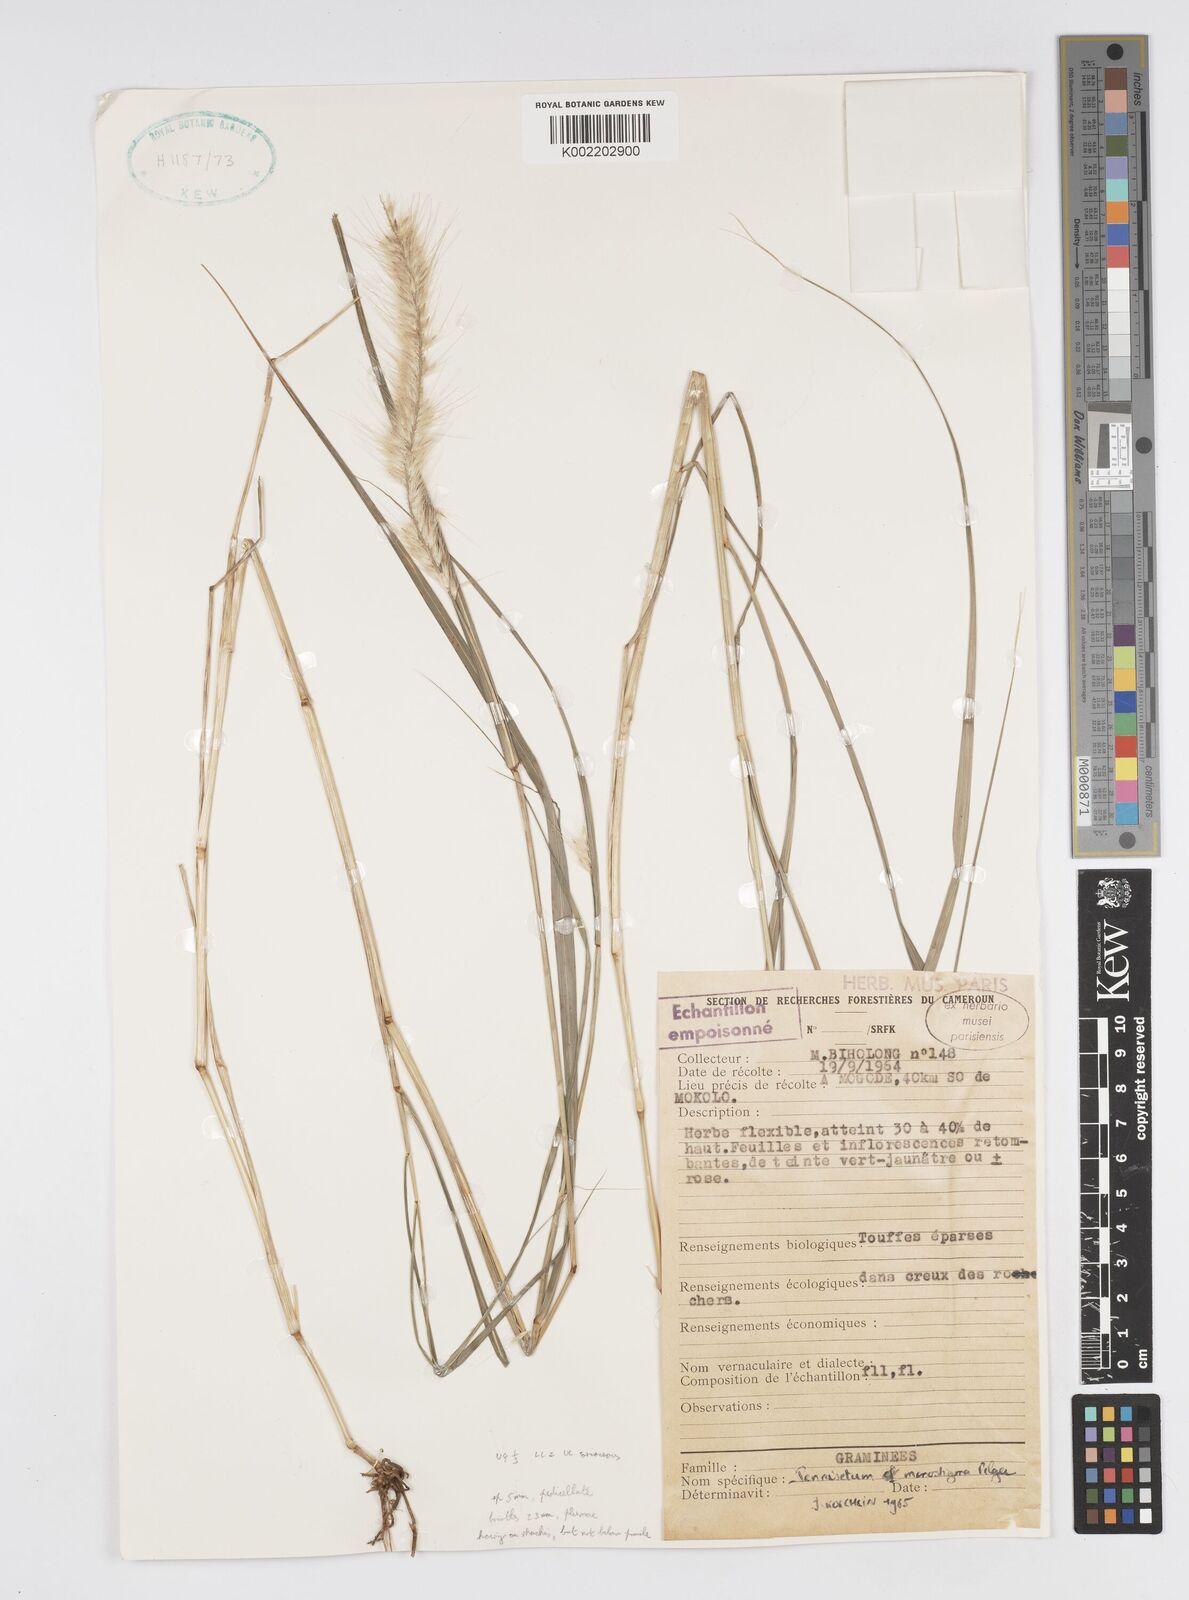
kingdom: Plantae
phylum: Tracheophyta
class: Liliopsida
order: Poales
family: Poaceae
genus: Cenchrus
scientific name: Cenchrus ledermannii
